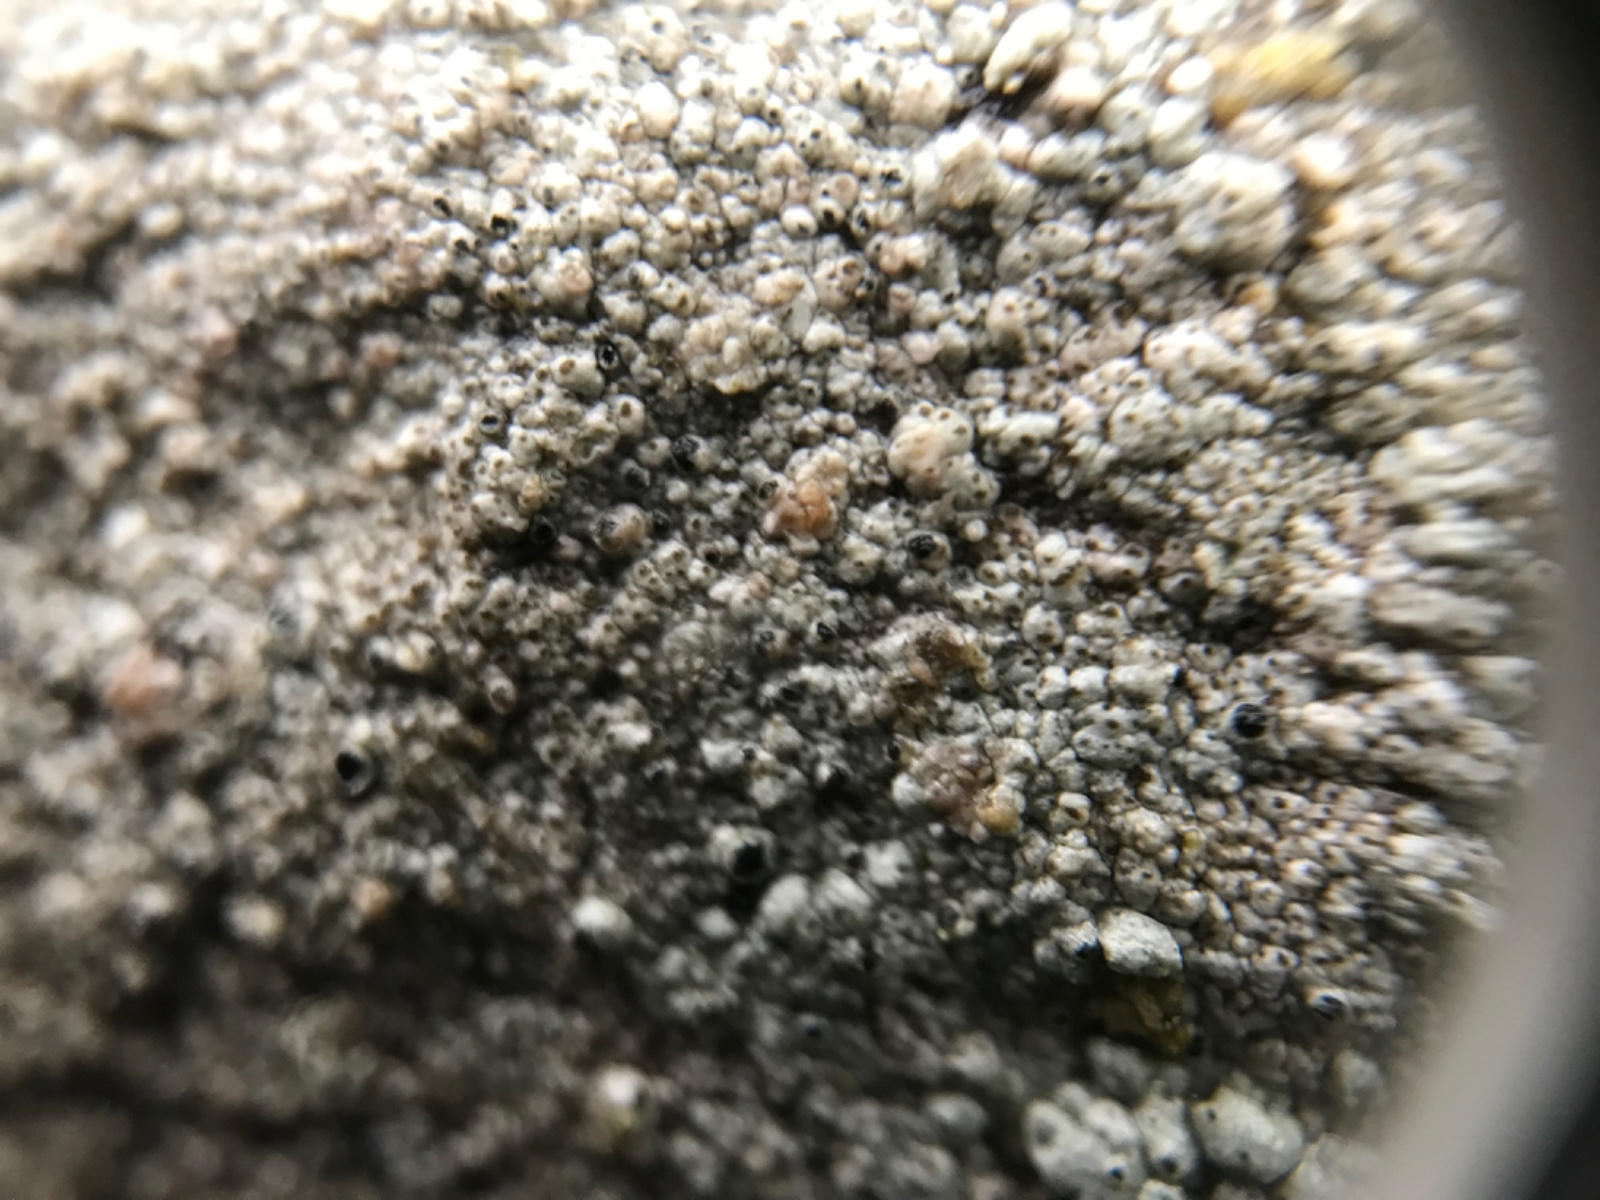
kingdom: Fungi
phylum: Ascomycota
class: Lecanoromycetes
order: Lecanorales
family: Parmeliaceae
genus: Lichen
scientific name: Lichen
